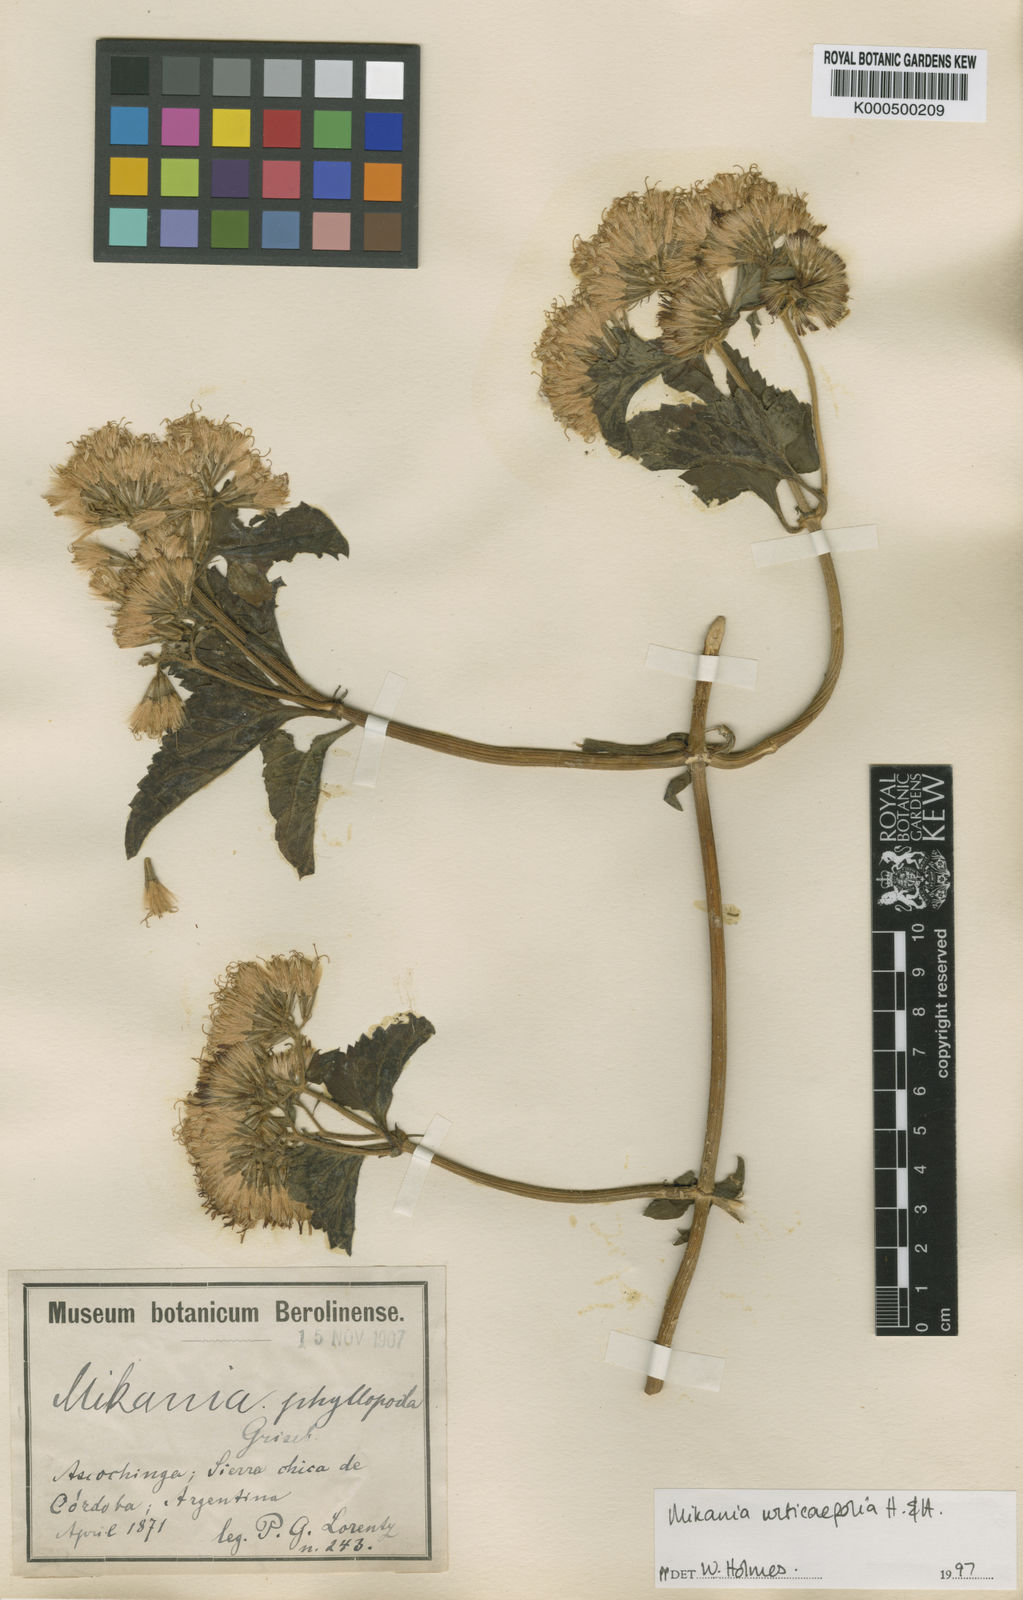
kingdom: Plantae
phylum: Tracheophyta
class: Magnoliopsida
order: Asterales
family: Asteraceae
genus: Mikania
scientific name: Mikania urticifolia
